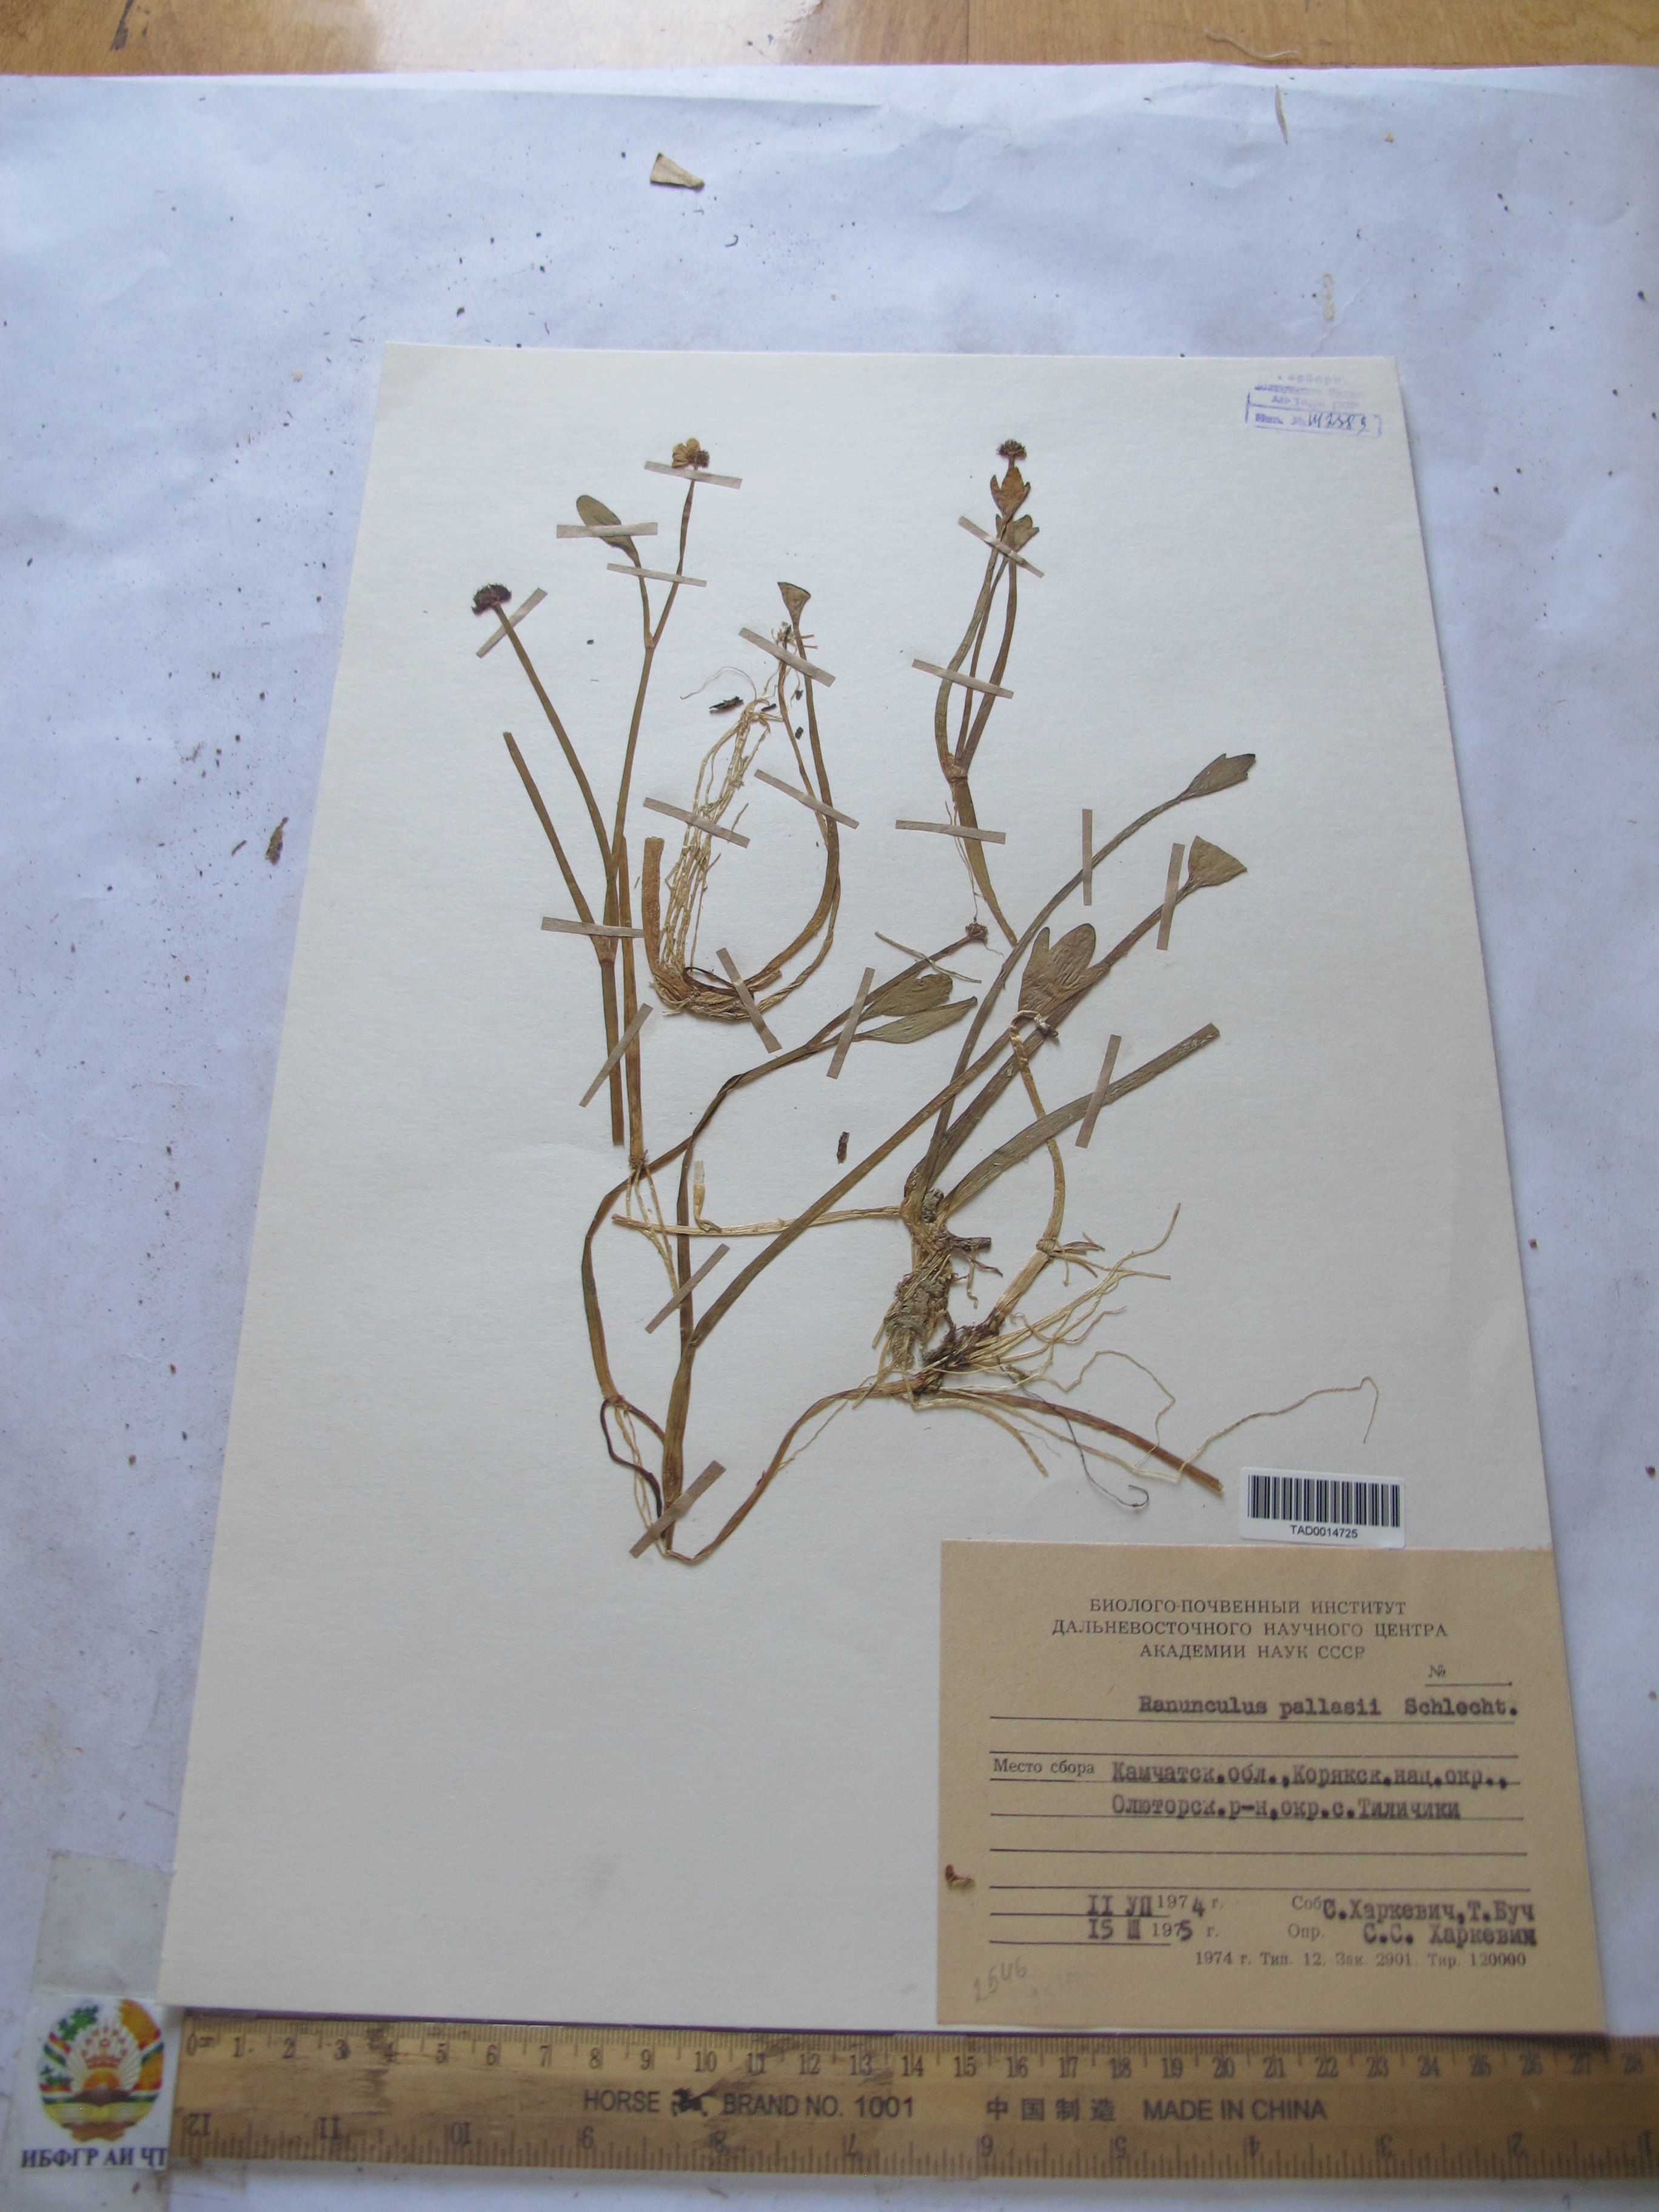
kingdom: Plantae
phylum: Tracheophyta
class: Magnoliopsida
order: Ranunculales
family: Ranunculaceae
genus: Coptidium
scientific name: Coptidium pallasii
